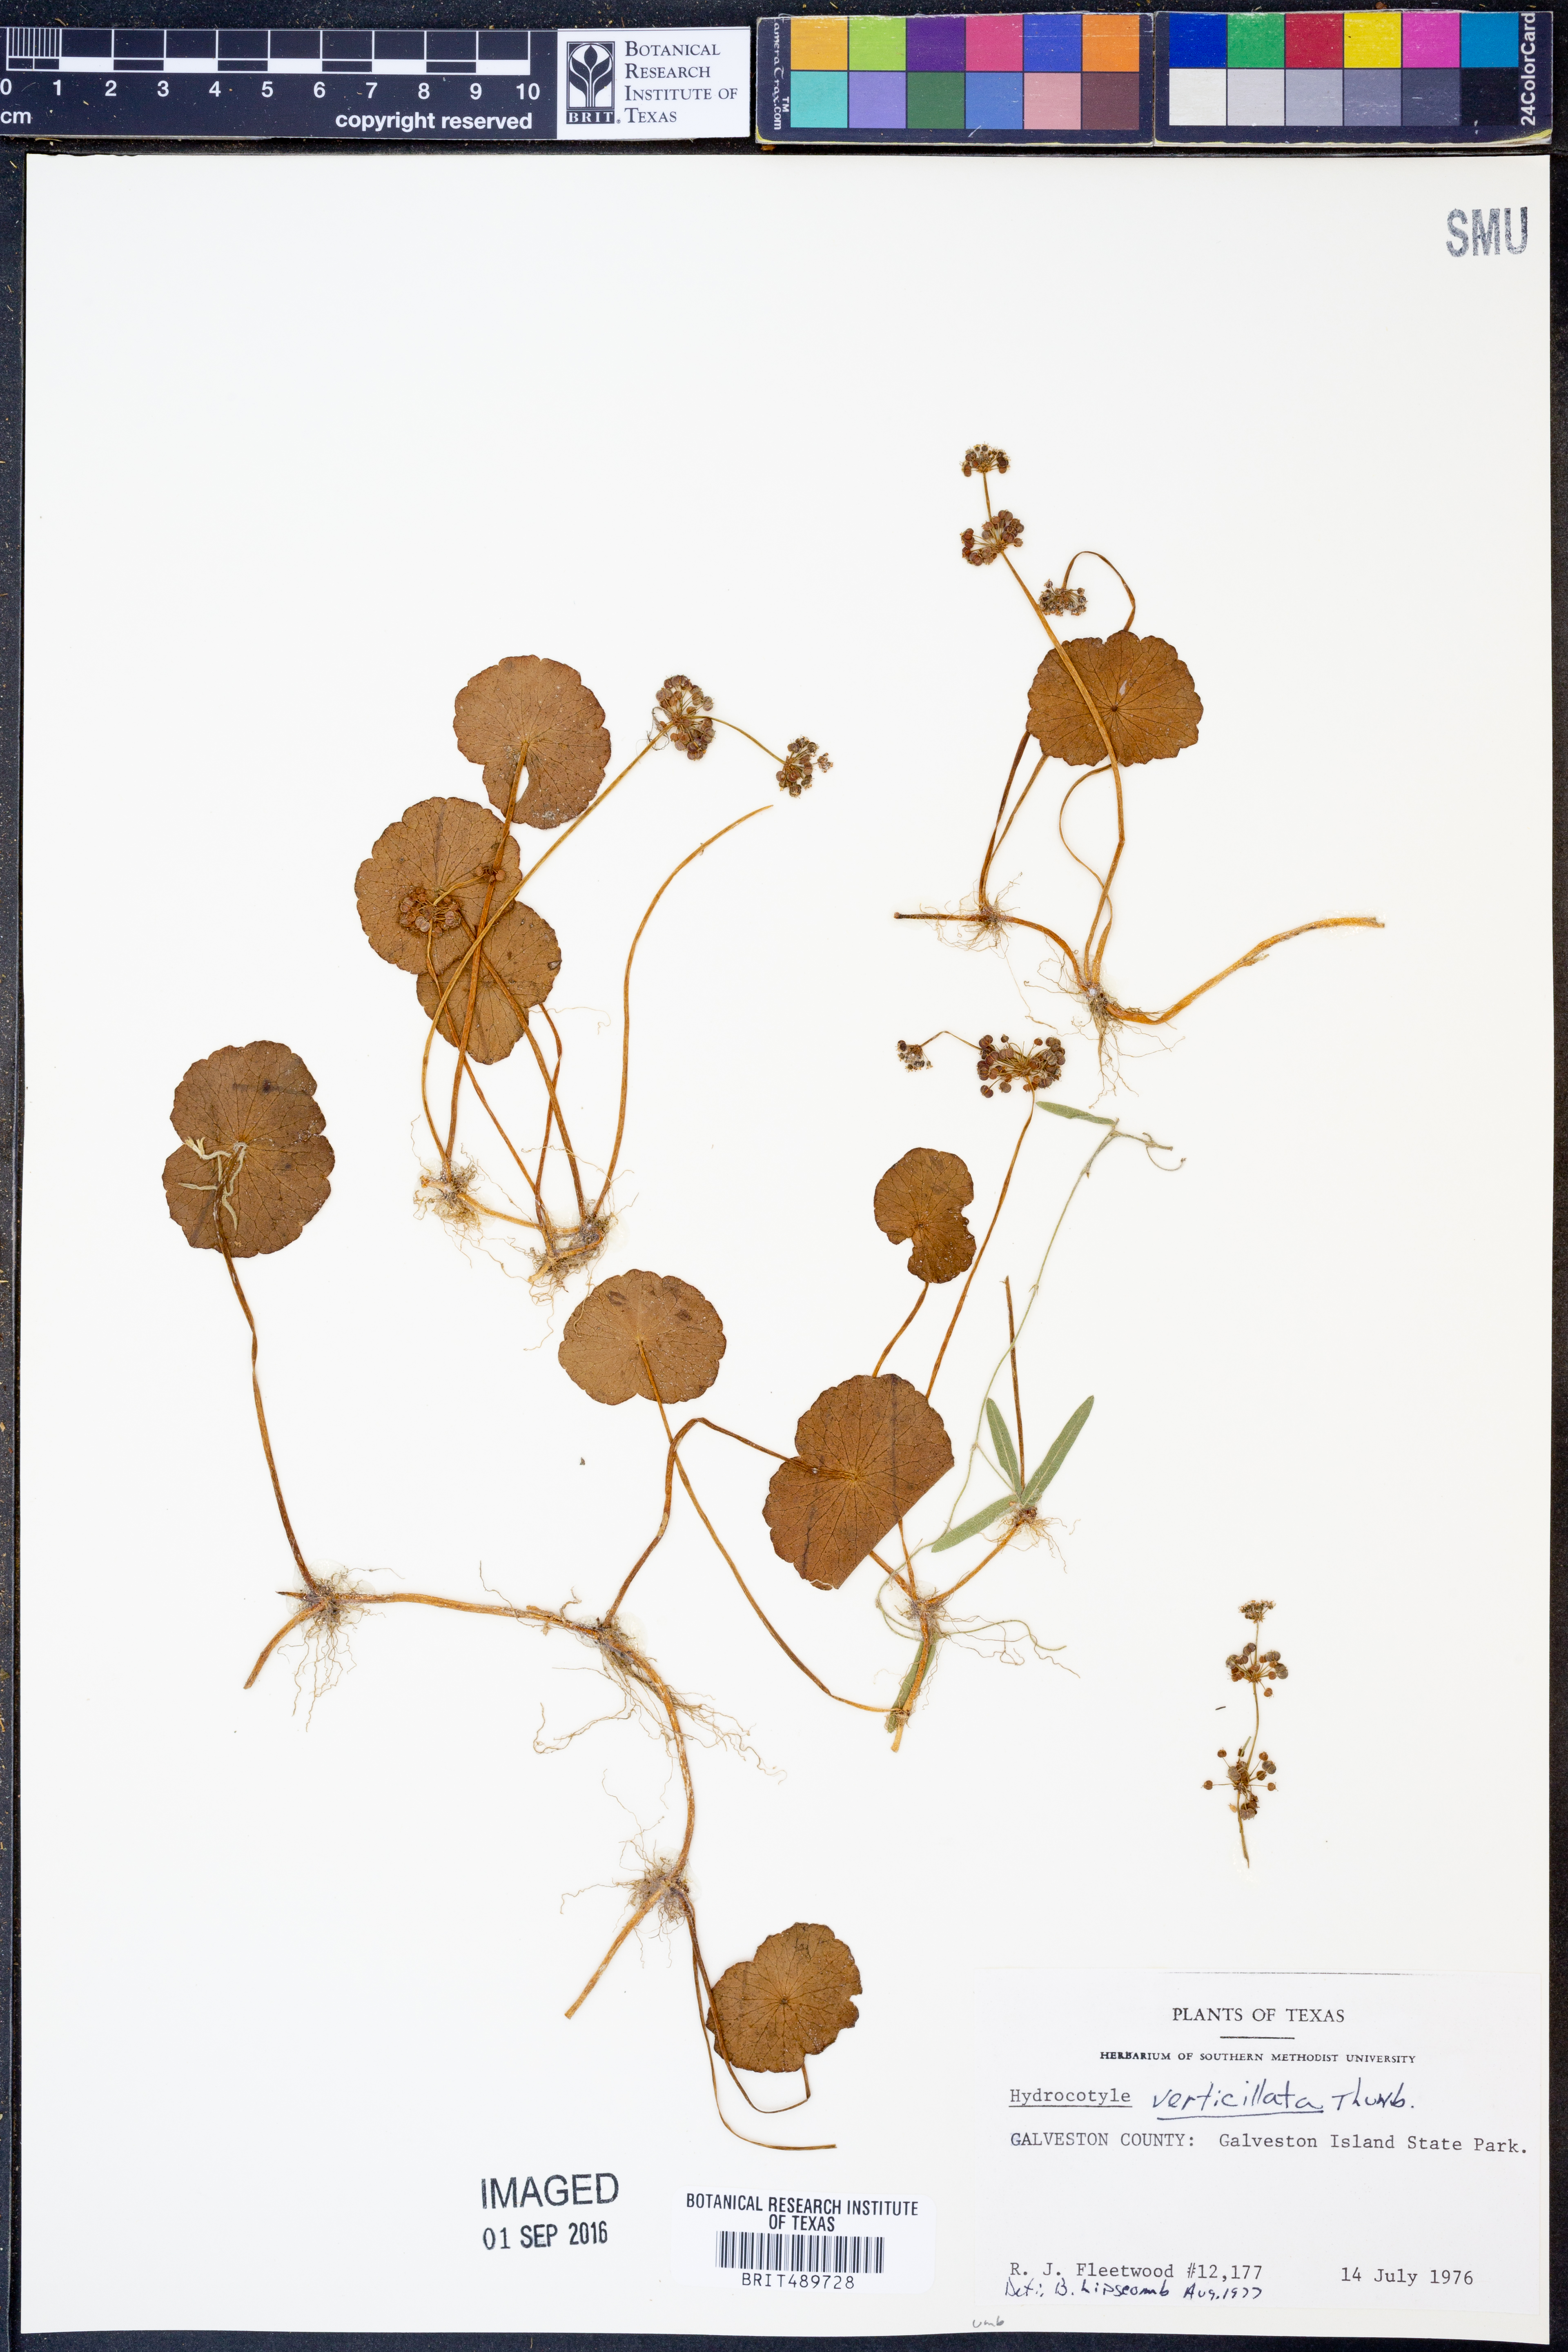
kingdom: Plantae
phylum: Tracheophyta
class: Magnoliopsida
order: Apiales
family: Araliaceae
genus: Hydrocotyle
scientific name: Hydrocotyle verticillata
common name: Whorled marshpennywort
